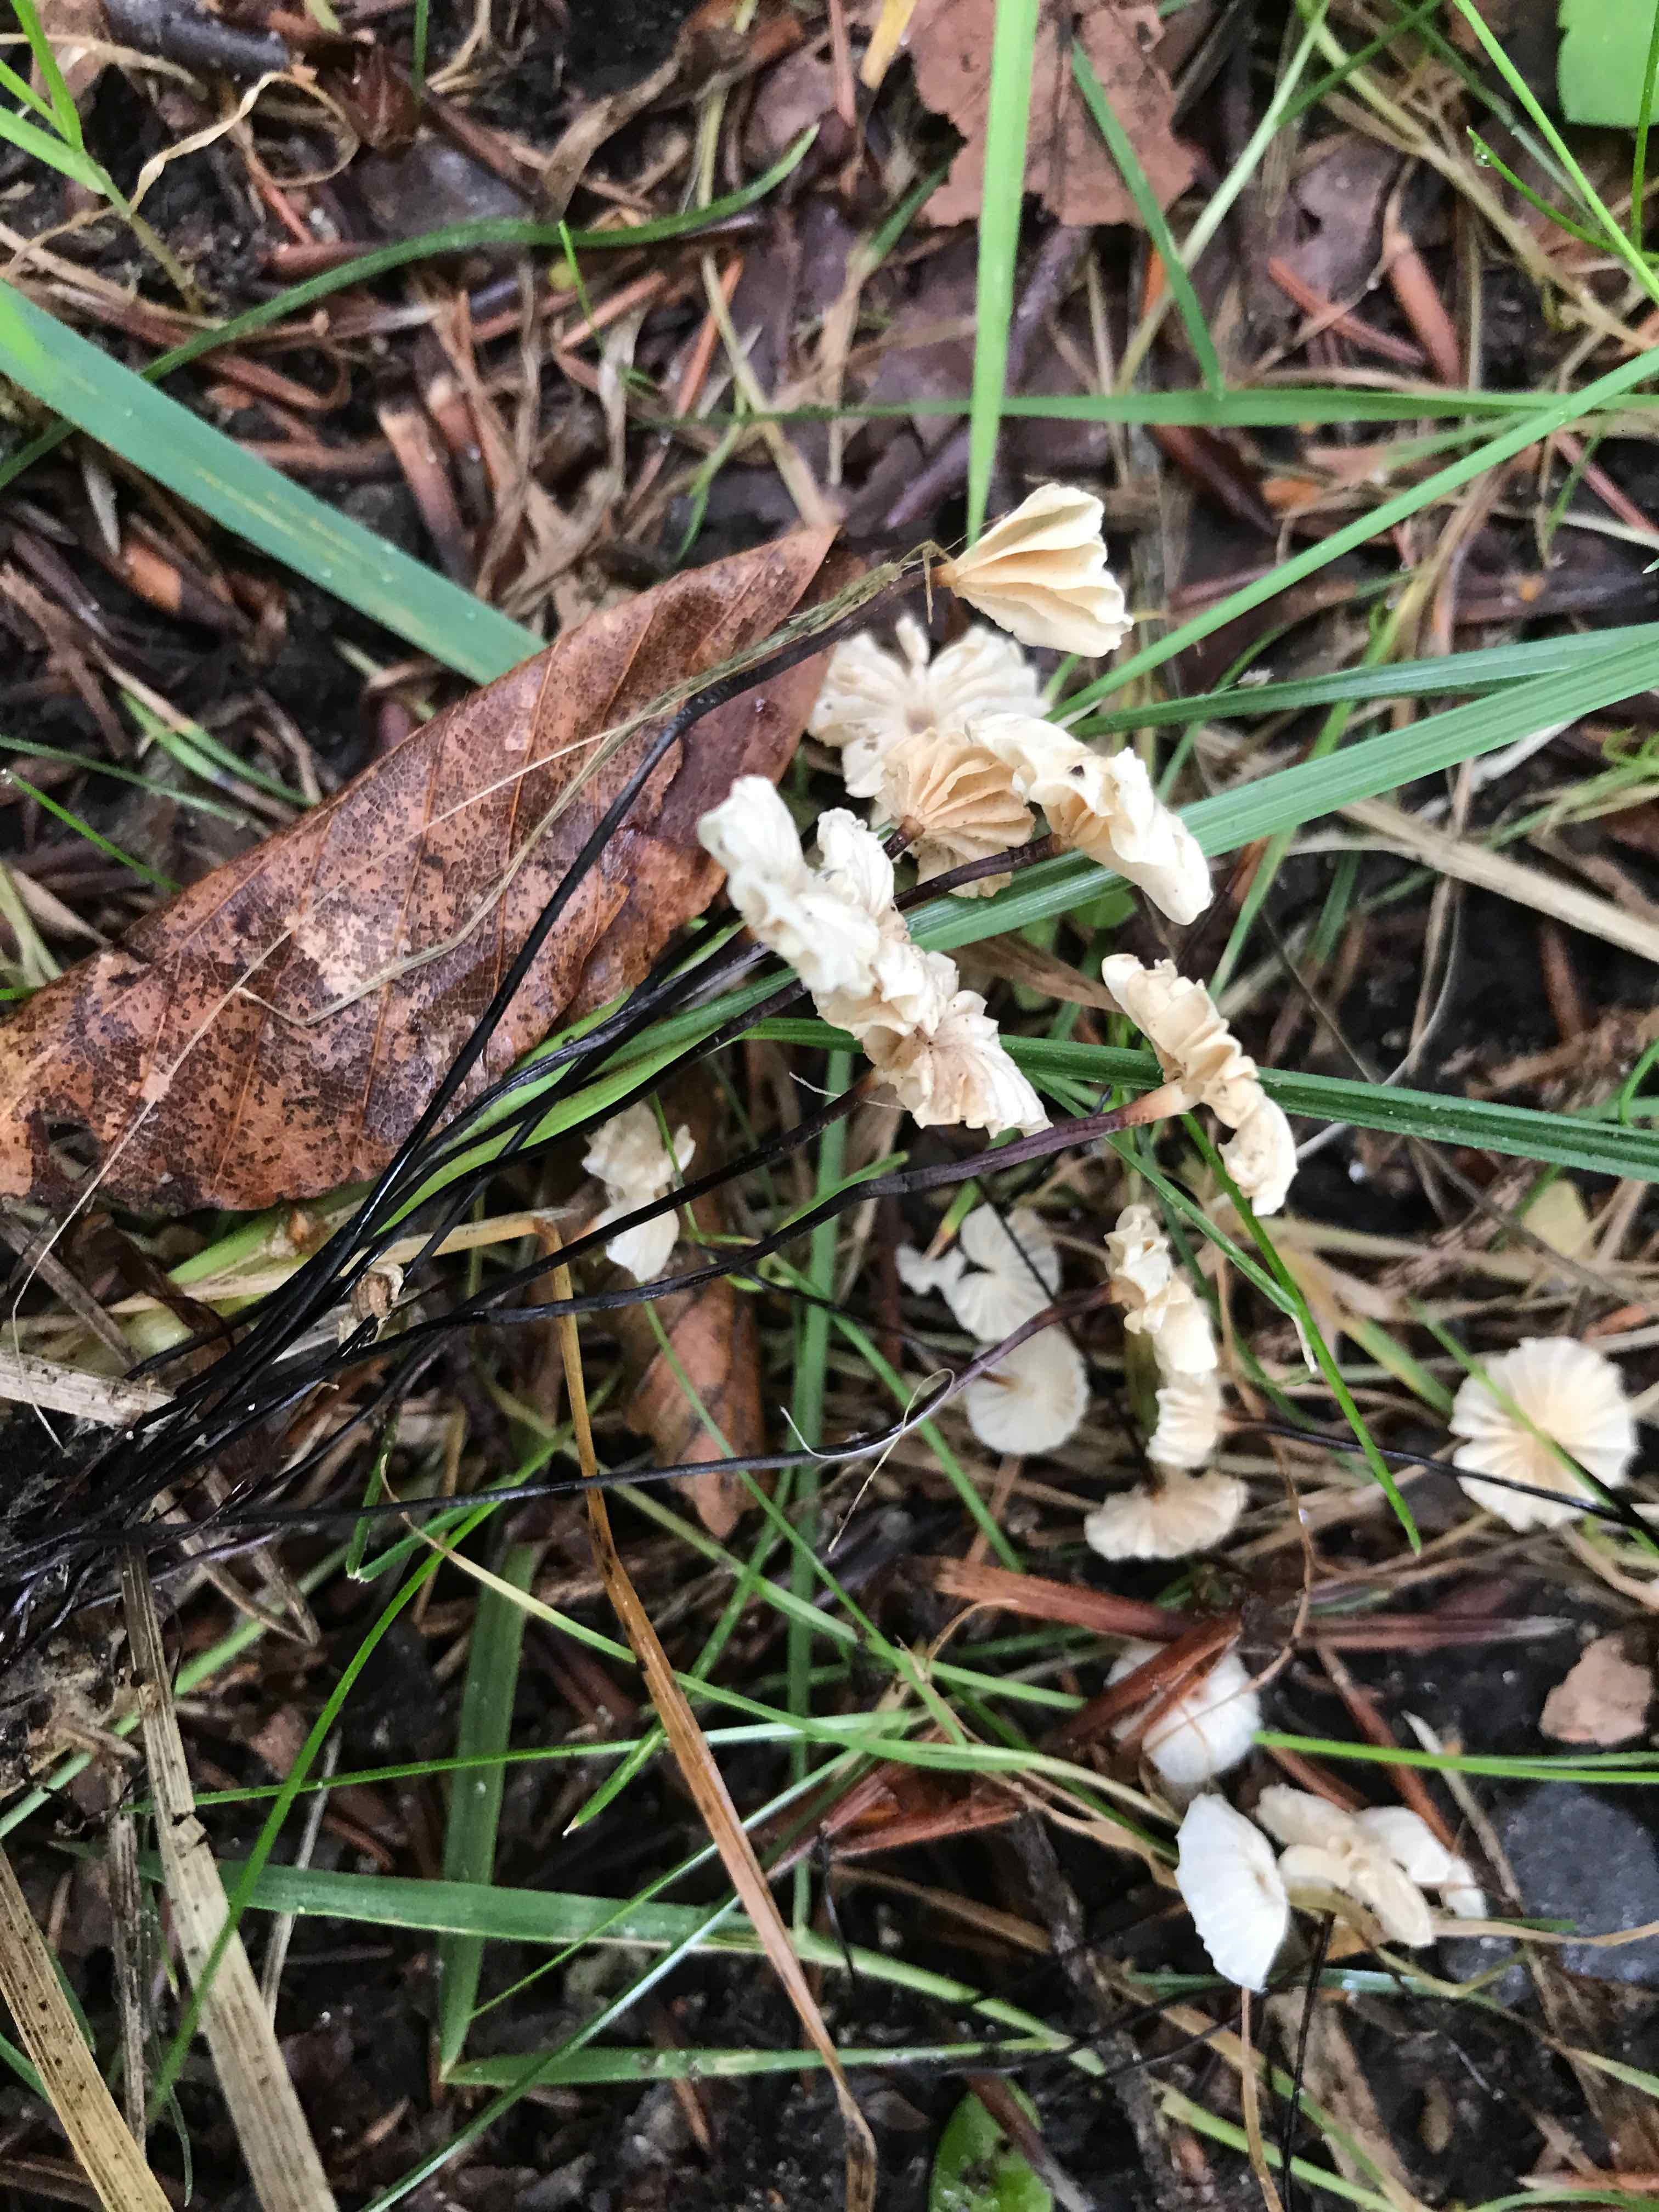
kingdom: Fungi
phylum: Basidiomycota
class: Agaricomycetes
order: Agaricales
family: Marasmiaceae
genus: Marasmius
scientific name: Marasmius rotula
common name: hjul-bruskhat
